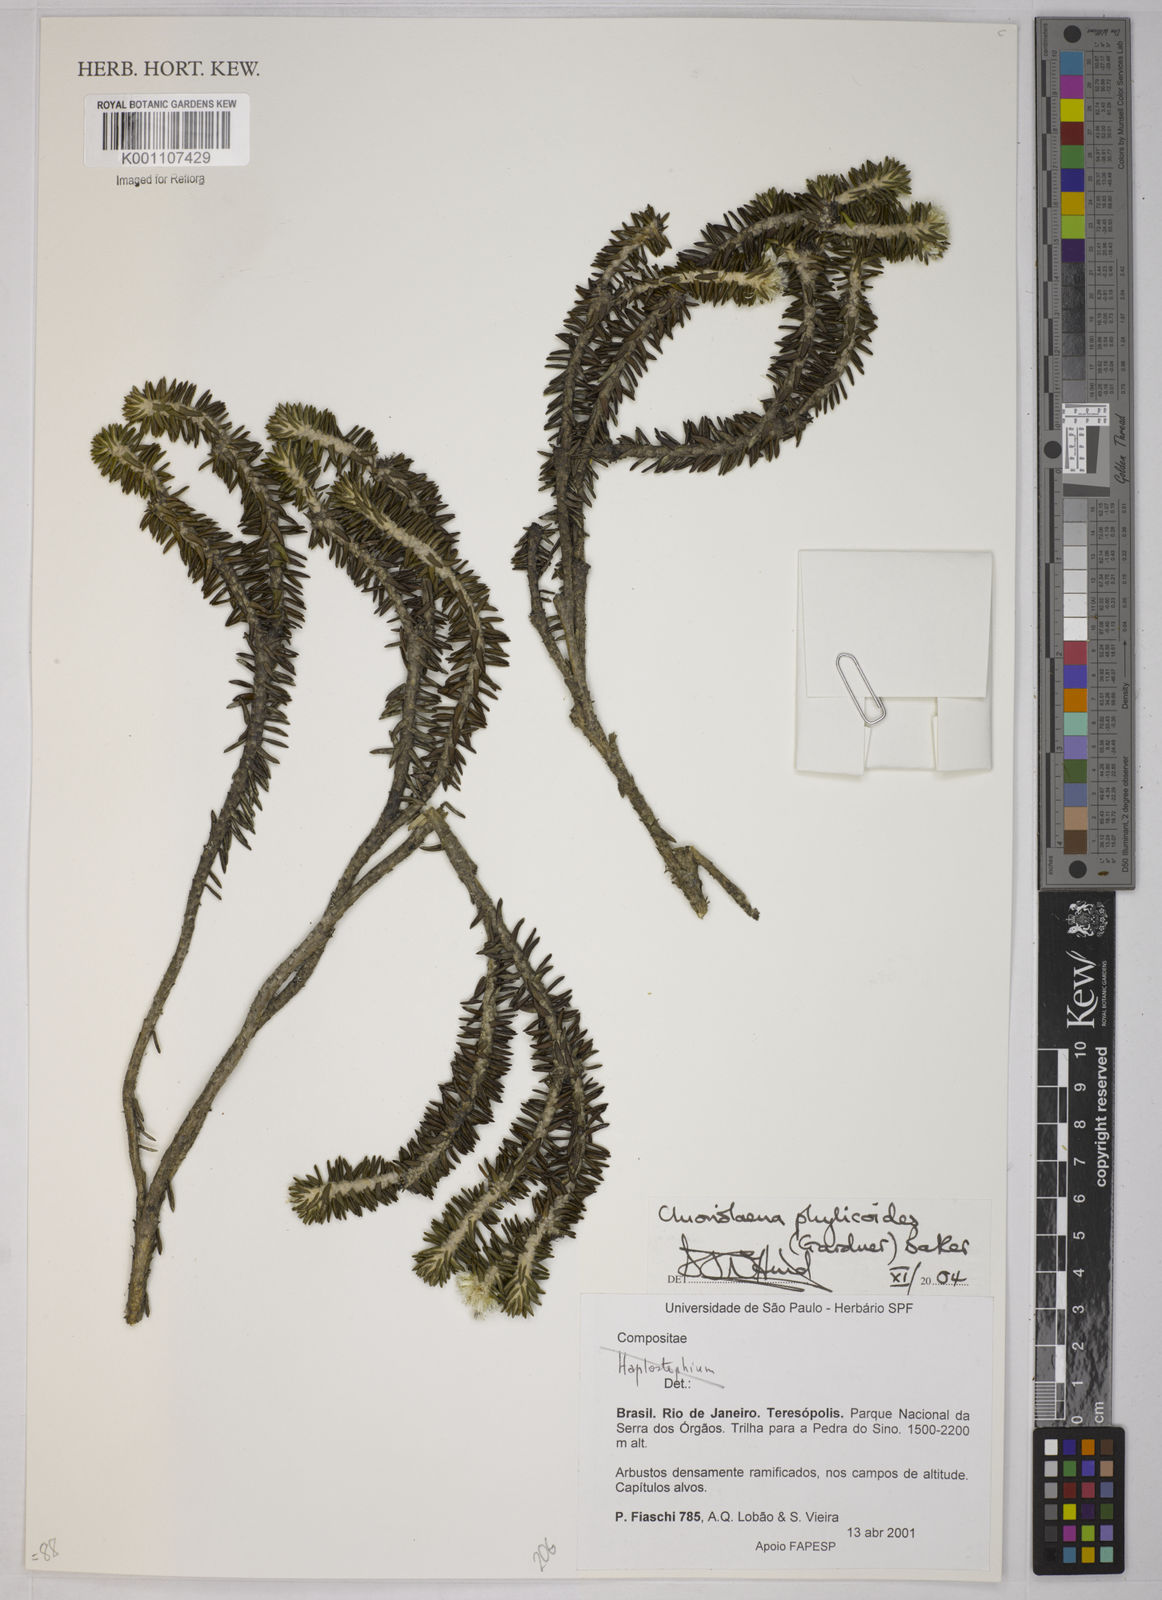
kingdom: Plantae
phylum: Tracheophyta
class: Magnoliopsida
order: Asterales
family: Asteraceae
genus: Chionolaena
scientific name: Chionolaena phylicoides
